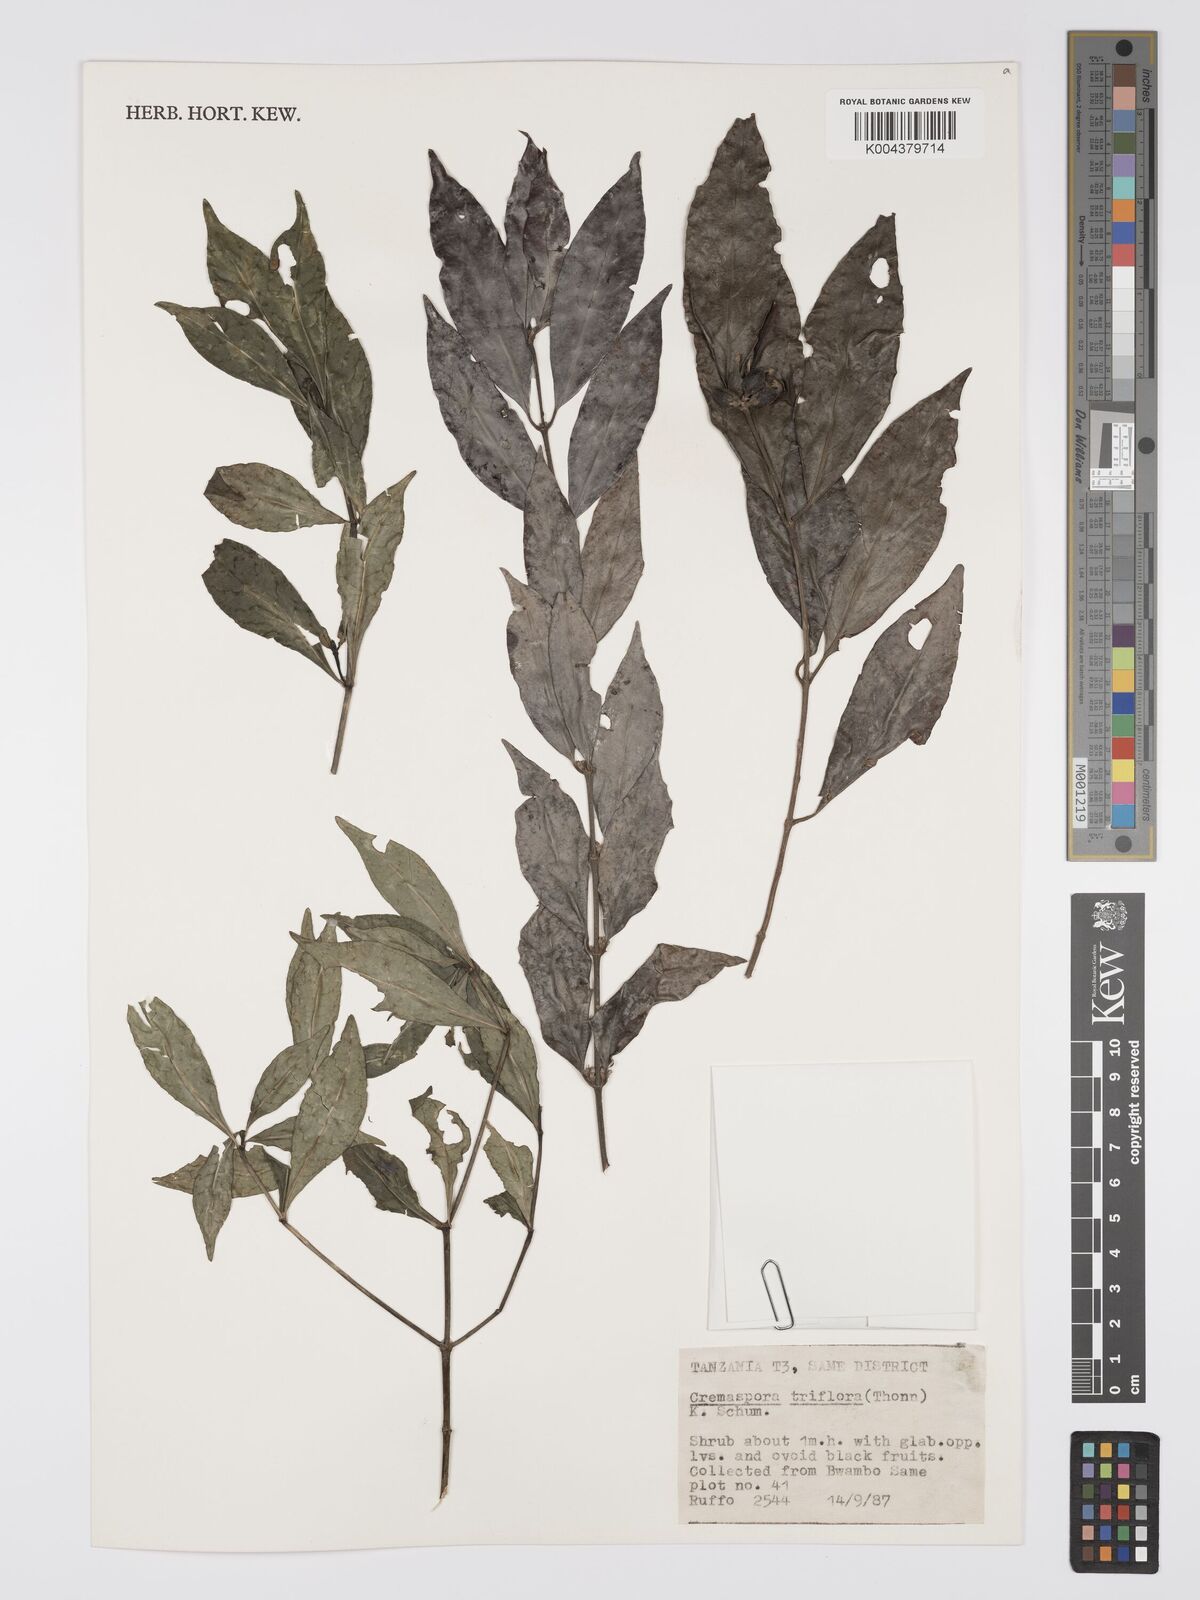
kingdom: Plantae
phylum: Tracheophyta
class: Magnoliopsida
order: Gentianales
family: Rubiaceae
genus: Cremaspora
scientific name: Cremaspora triflora
